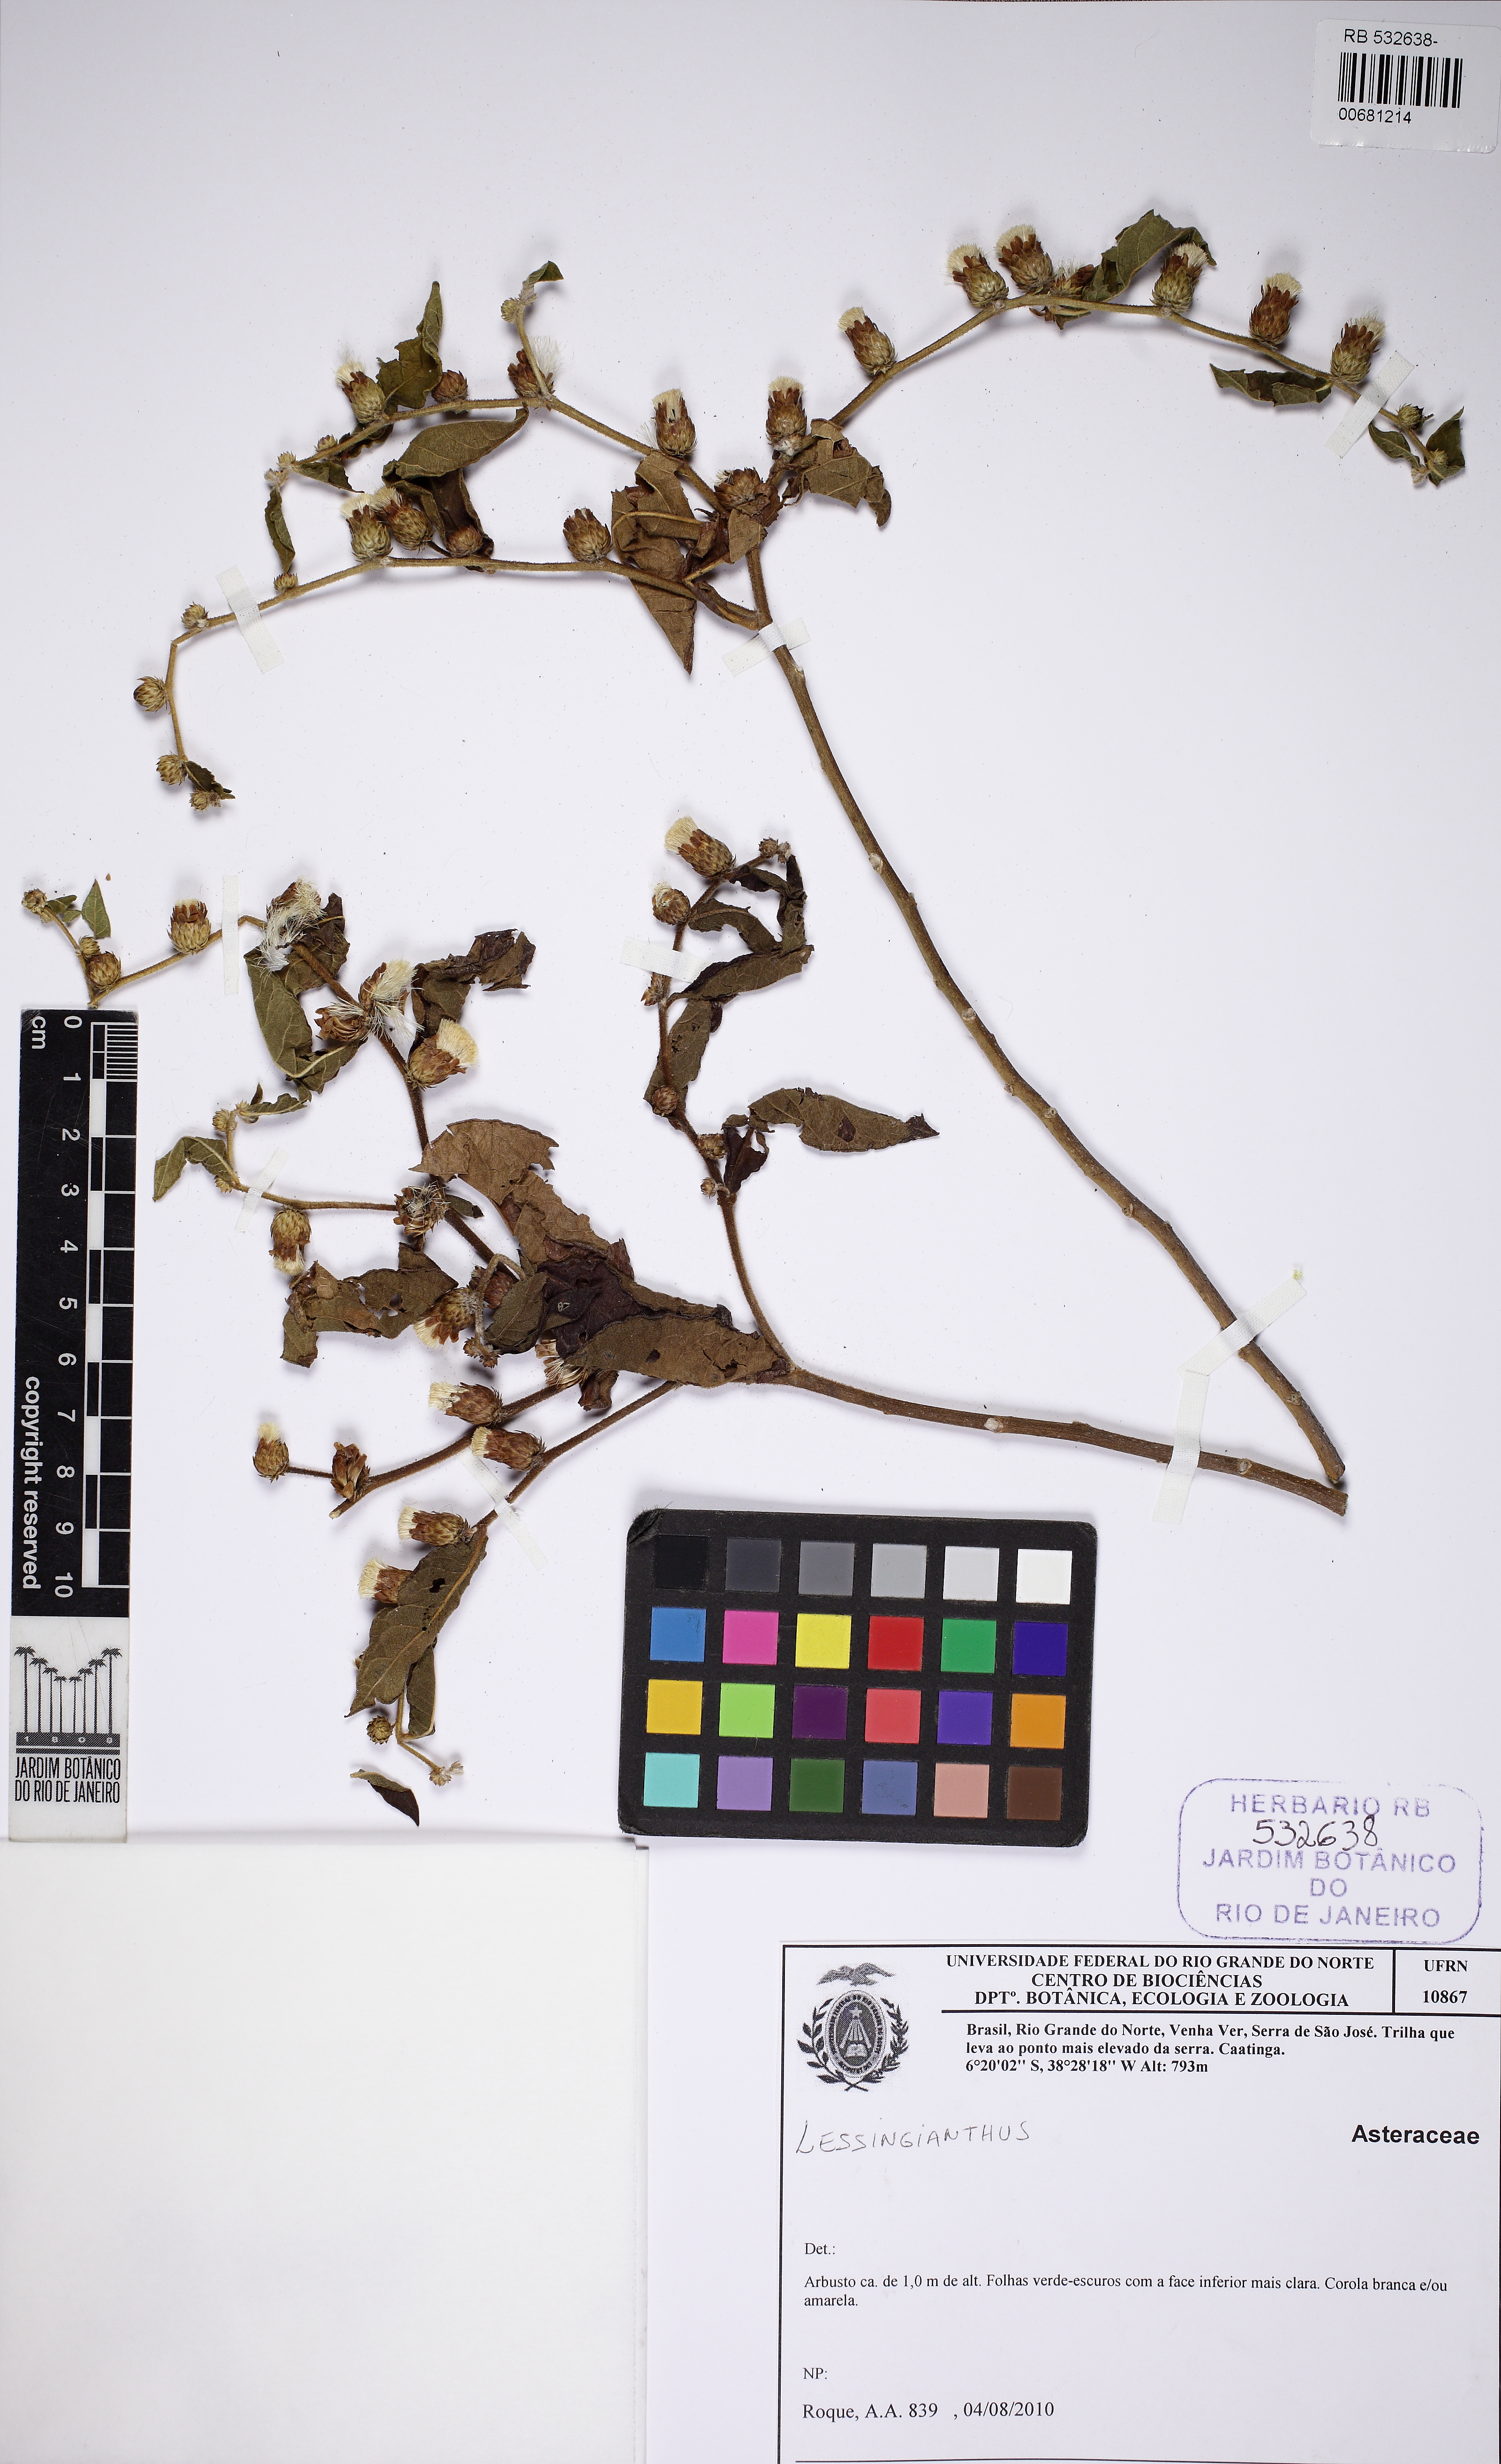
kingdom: Plantae
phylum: Tracheophyta
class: Magnoliopsida
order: Asterales
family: Asteraceae
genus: Lessingianthus
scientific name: Lessingianthus
